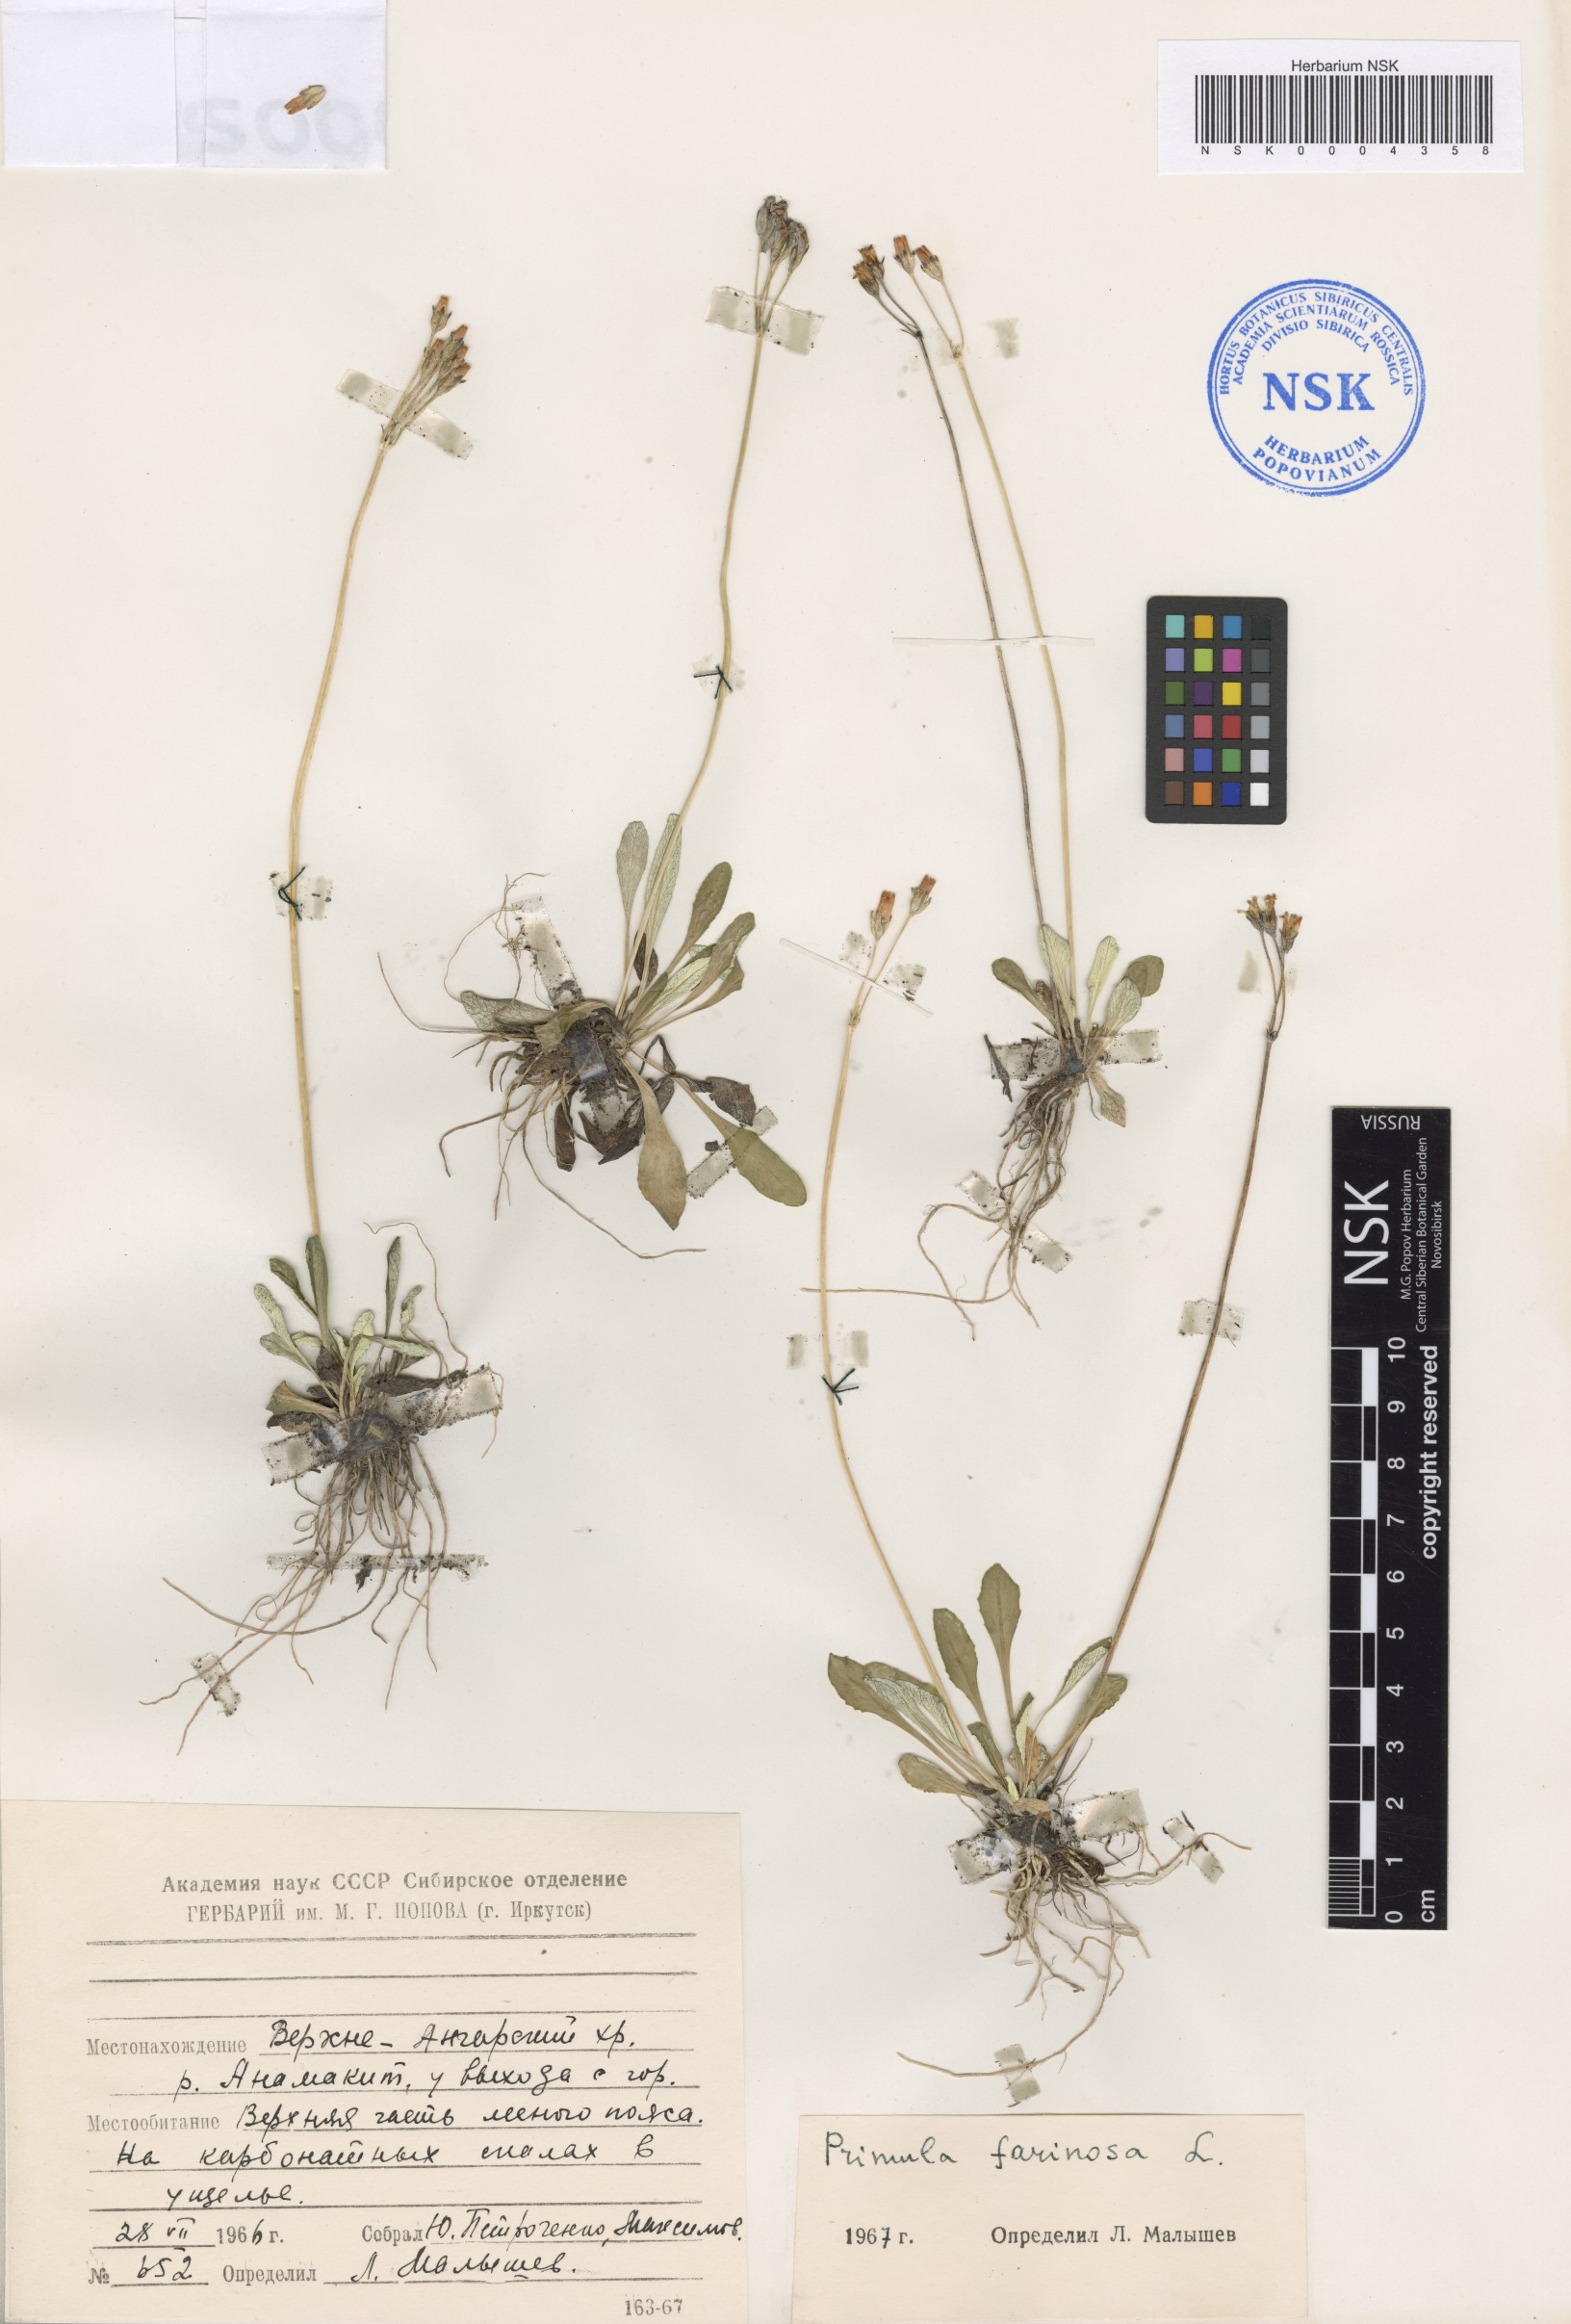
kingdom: Plantae
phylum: Tracheophyta
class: Magnoliopsida
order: Ericales
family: Primulaceae
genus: Primula
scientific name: Primula farinosa
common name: Bird's-eye primrose
